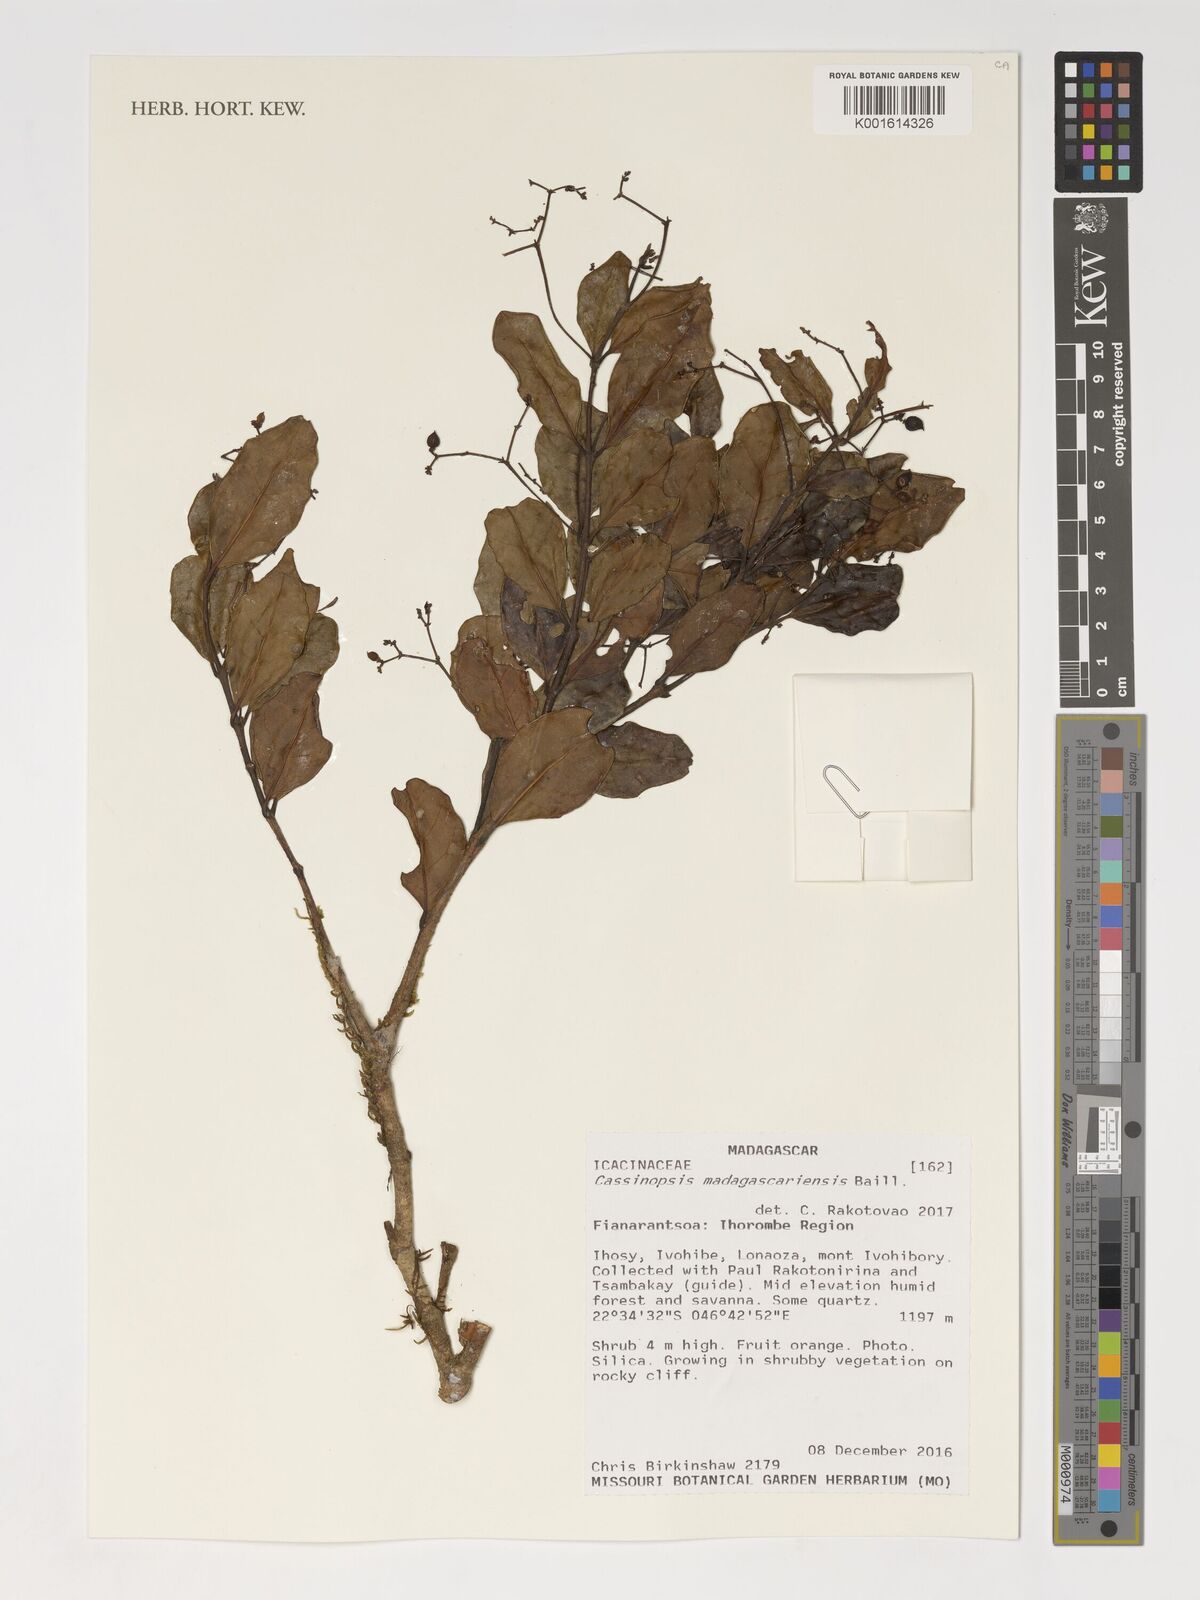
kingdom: Plantae
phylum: Tracheophyta
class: Magnoliopsida
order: Icacinales
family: Icacinaceae
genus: Cassinopsis
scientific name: Cassinopsis madagascariensis
